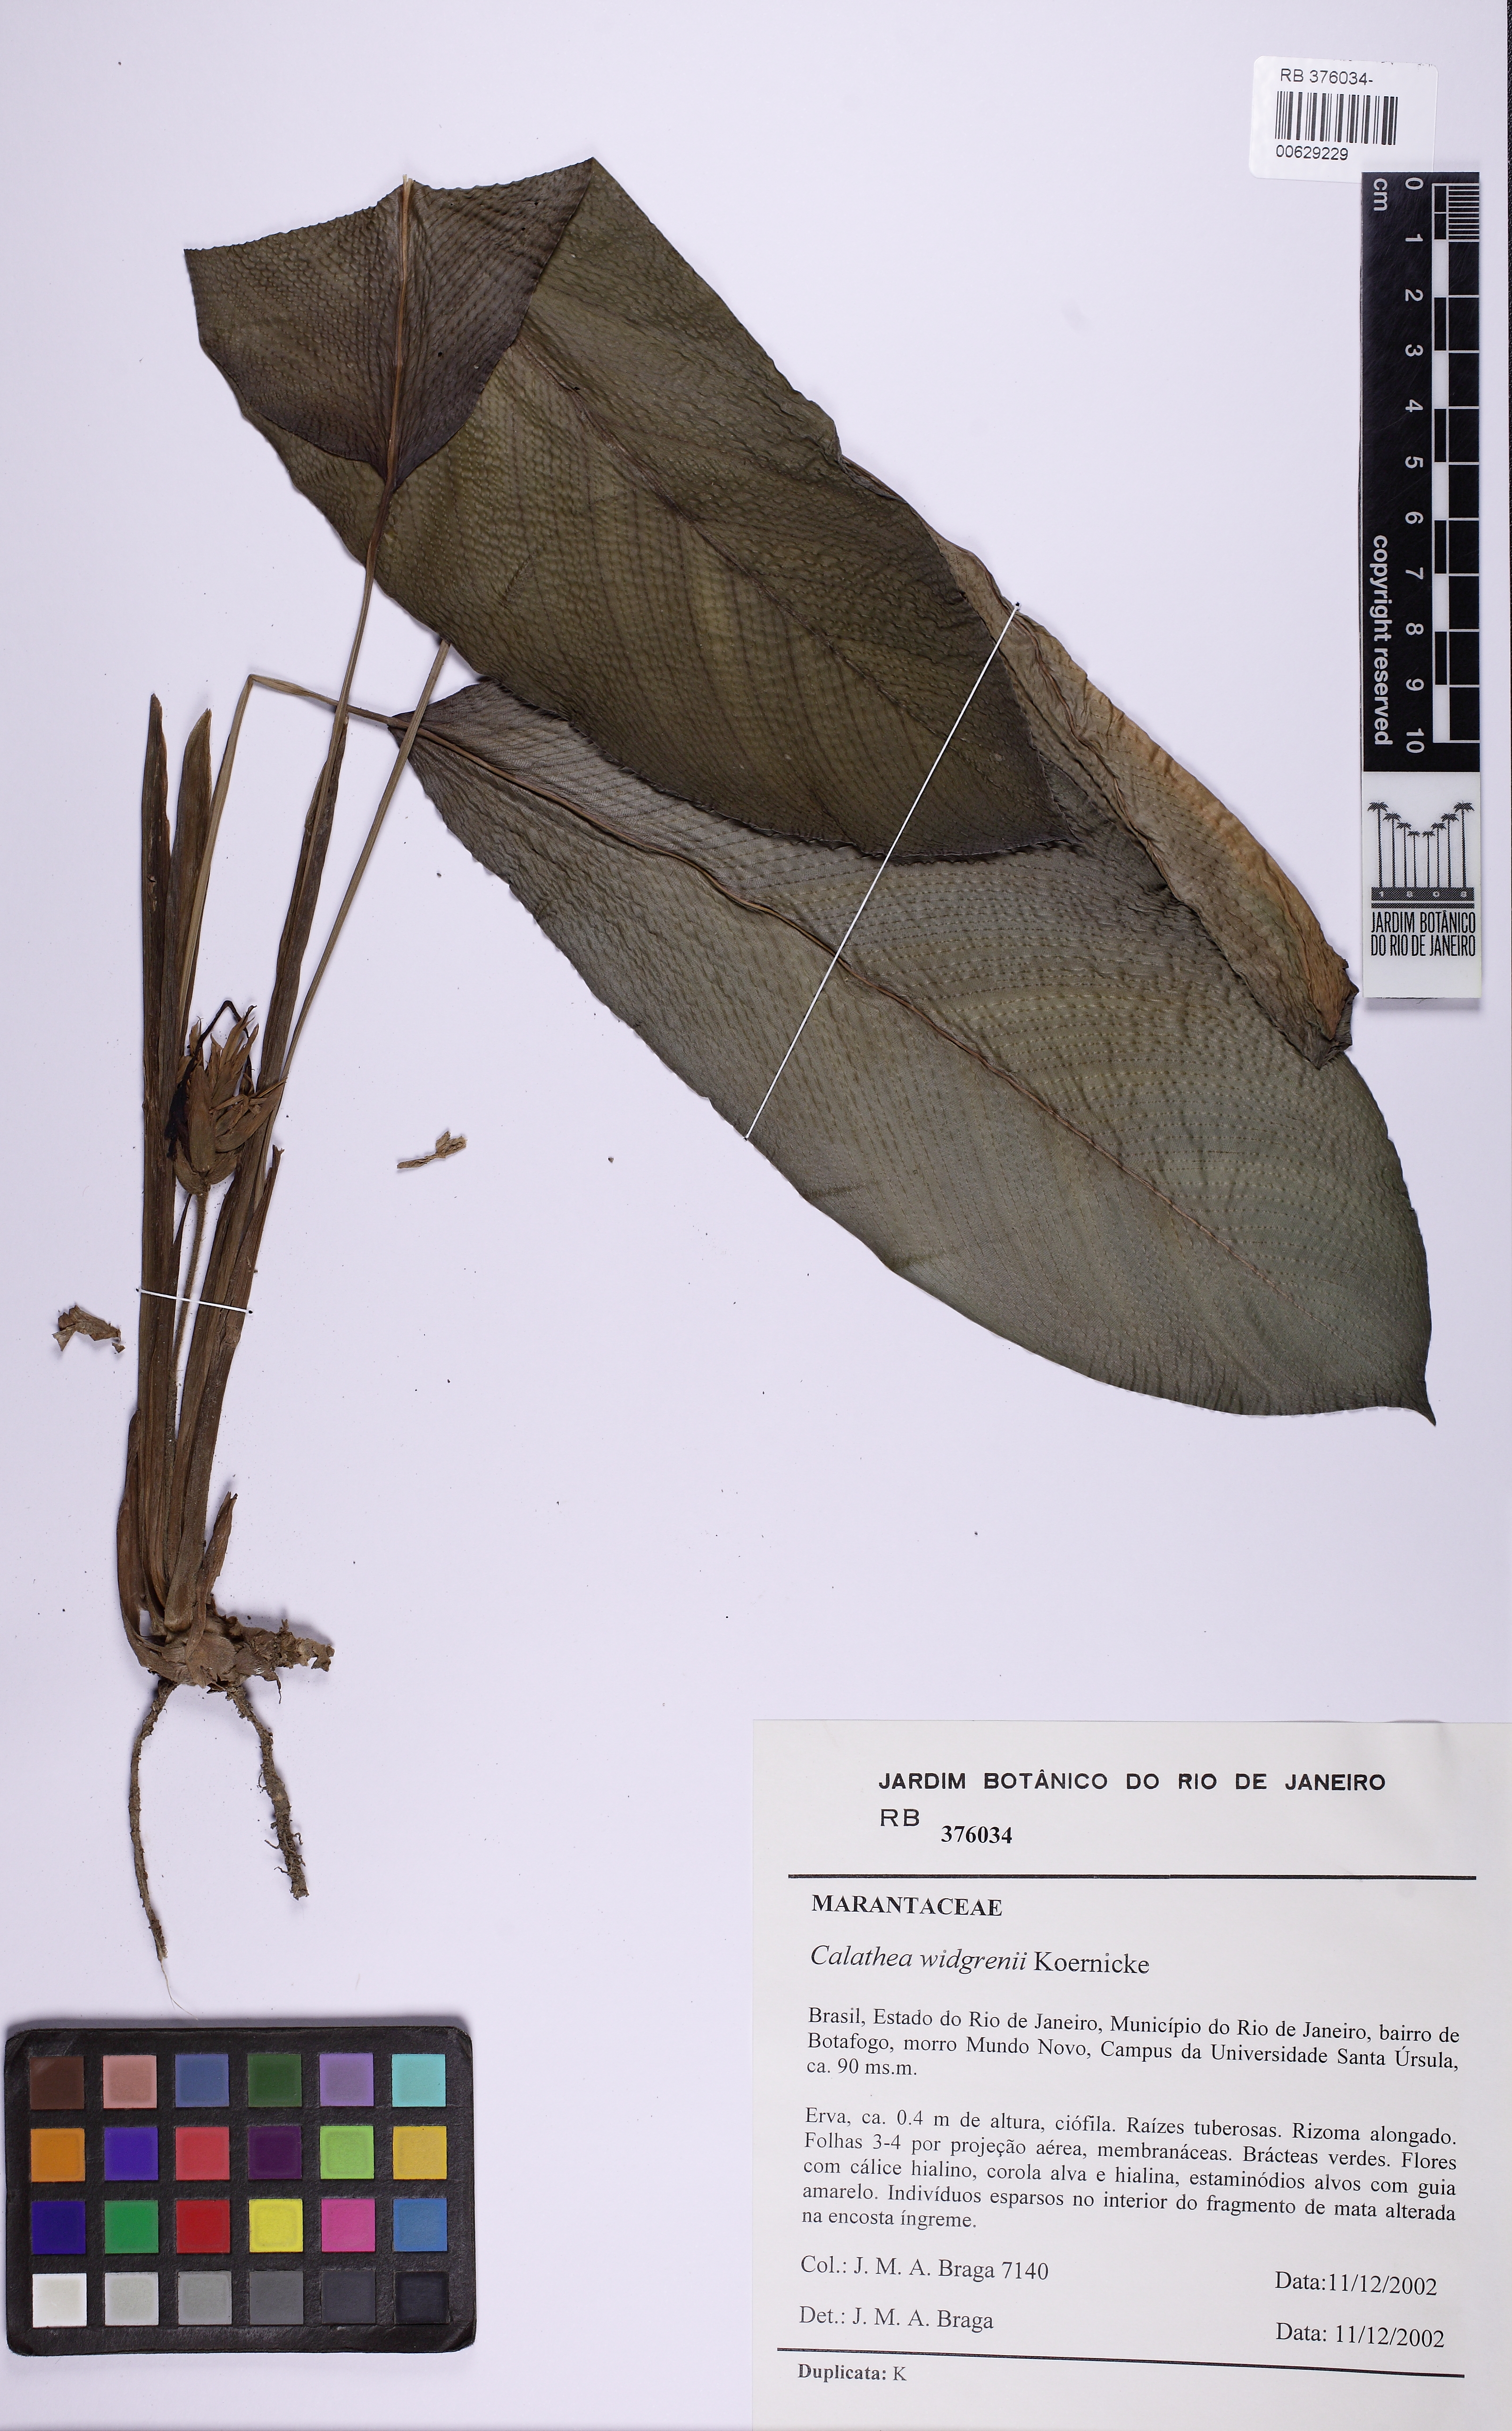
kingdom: Plantae
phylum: Tracheophyta
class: Liliopsida
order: Zingiberales
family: Marantaceae
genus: Goeppertia
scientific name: Goeppertia widgrenii
